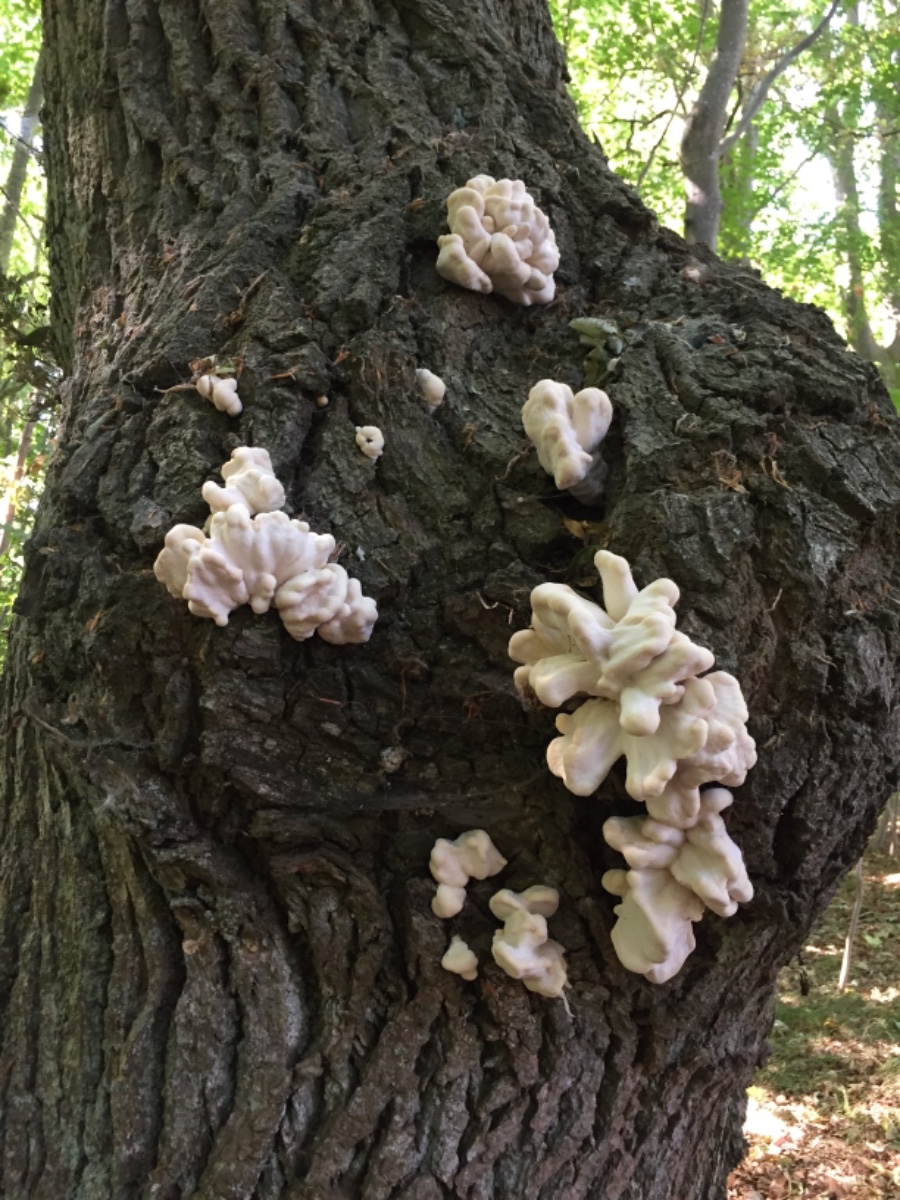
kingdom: Fungi
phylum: Basidiomycota
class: Agaricomycetes
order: Polyporales
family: Laetiporaceae
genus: Laetiporus
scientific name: Laetiporus sulphureus
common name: svovlporesvamp
